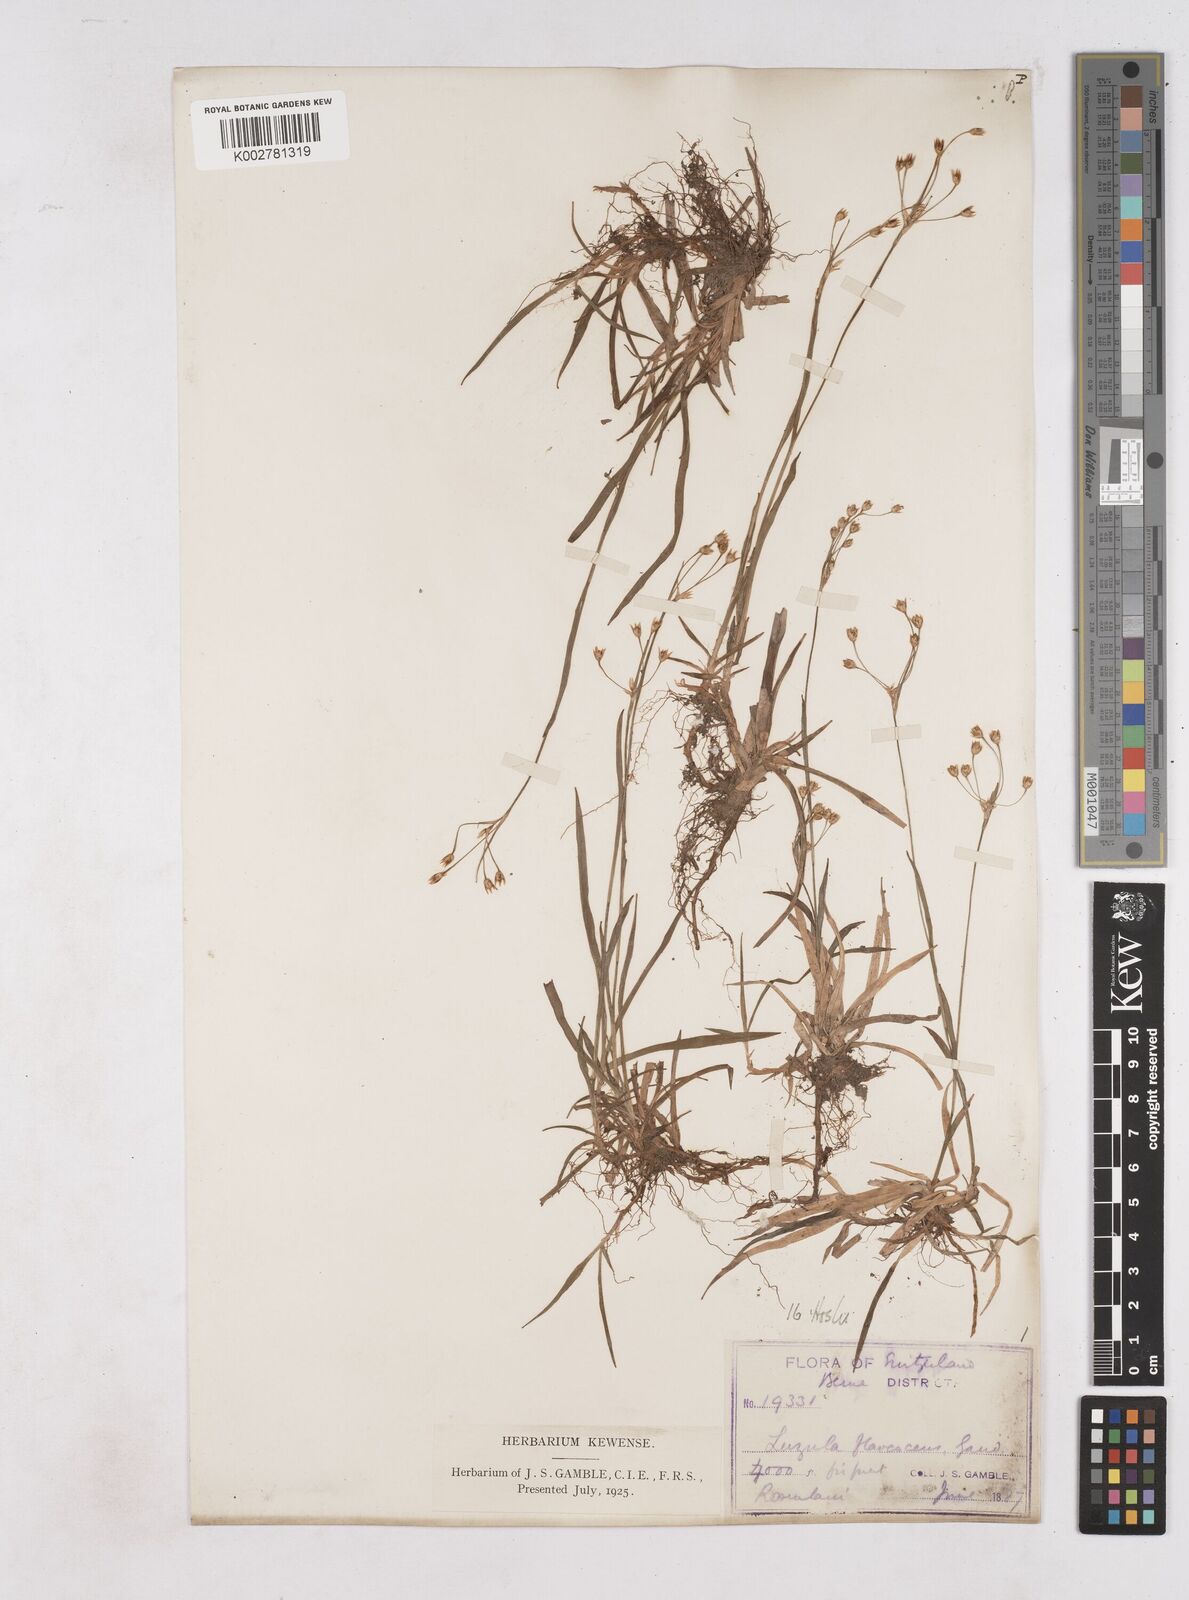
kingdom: Plantae
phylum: Tracheophyta
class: Liliopsida
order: Poales
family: Juncaceae
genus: Luzula
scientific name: Luzula luzulina
